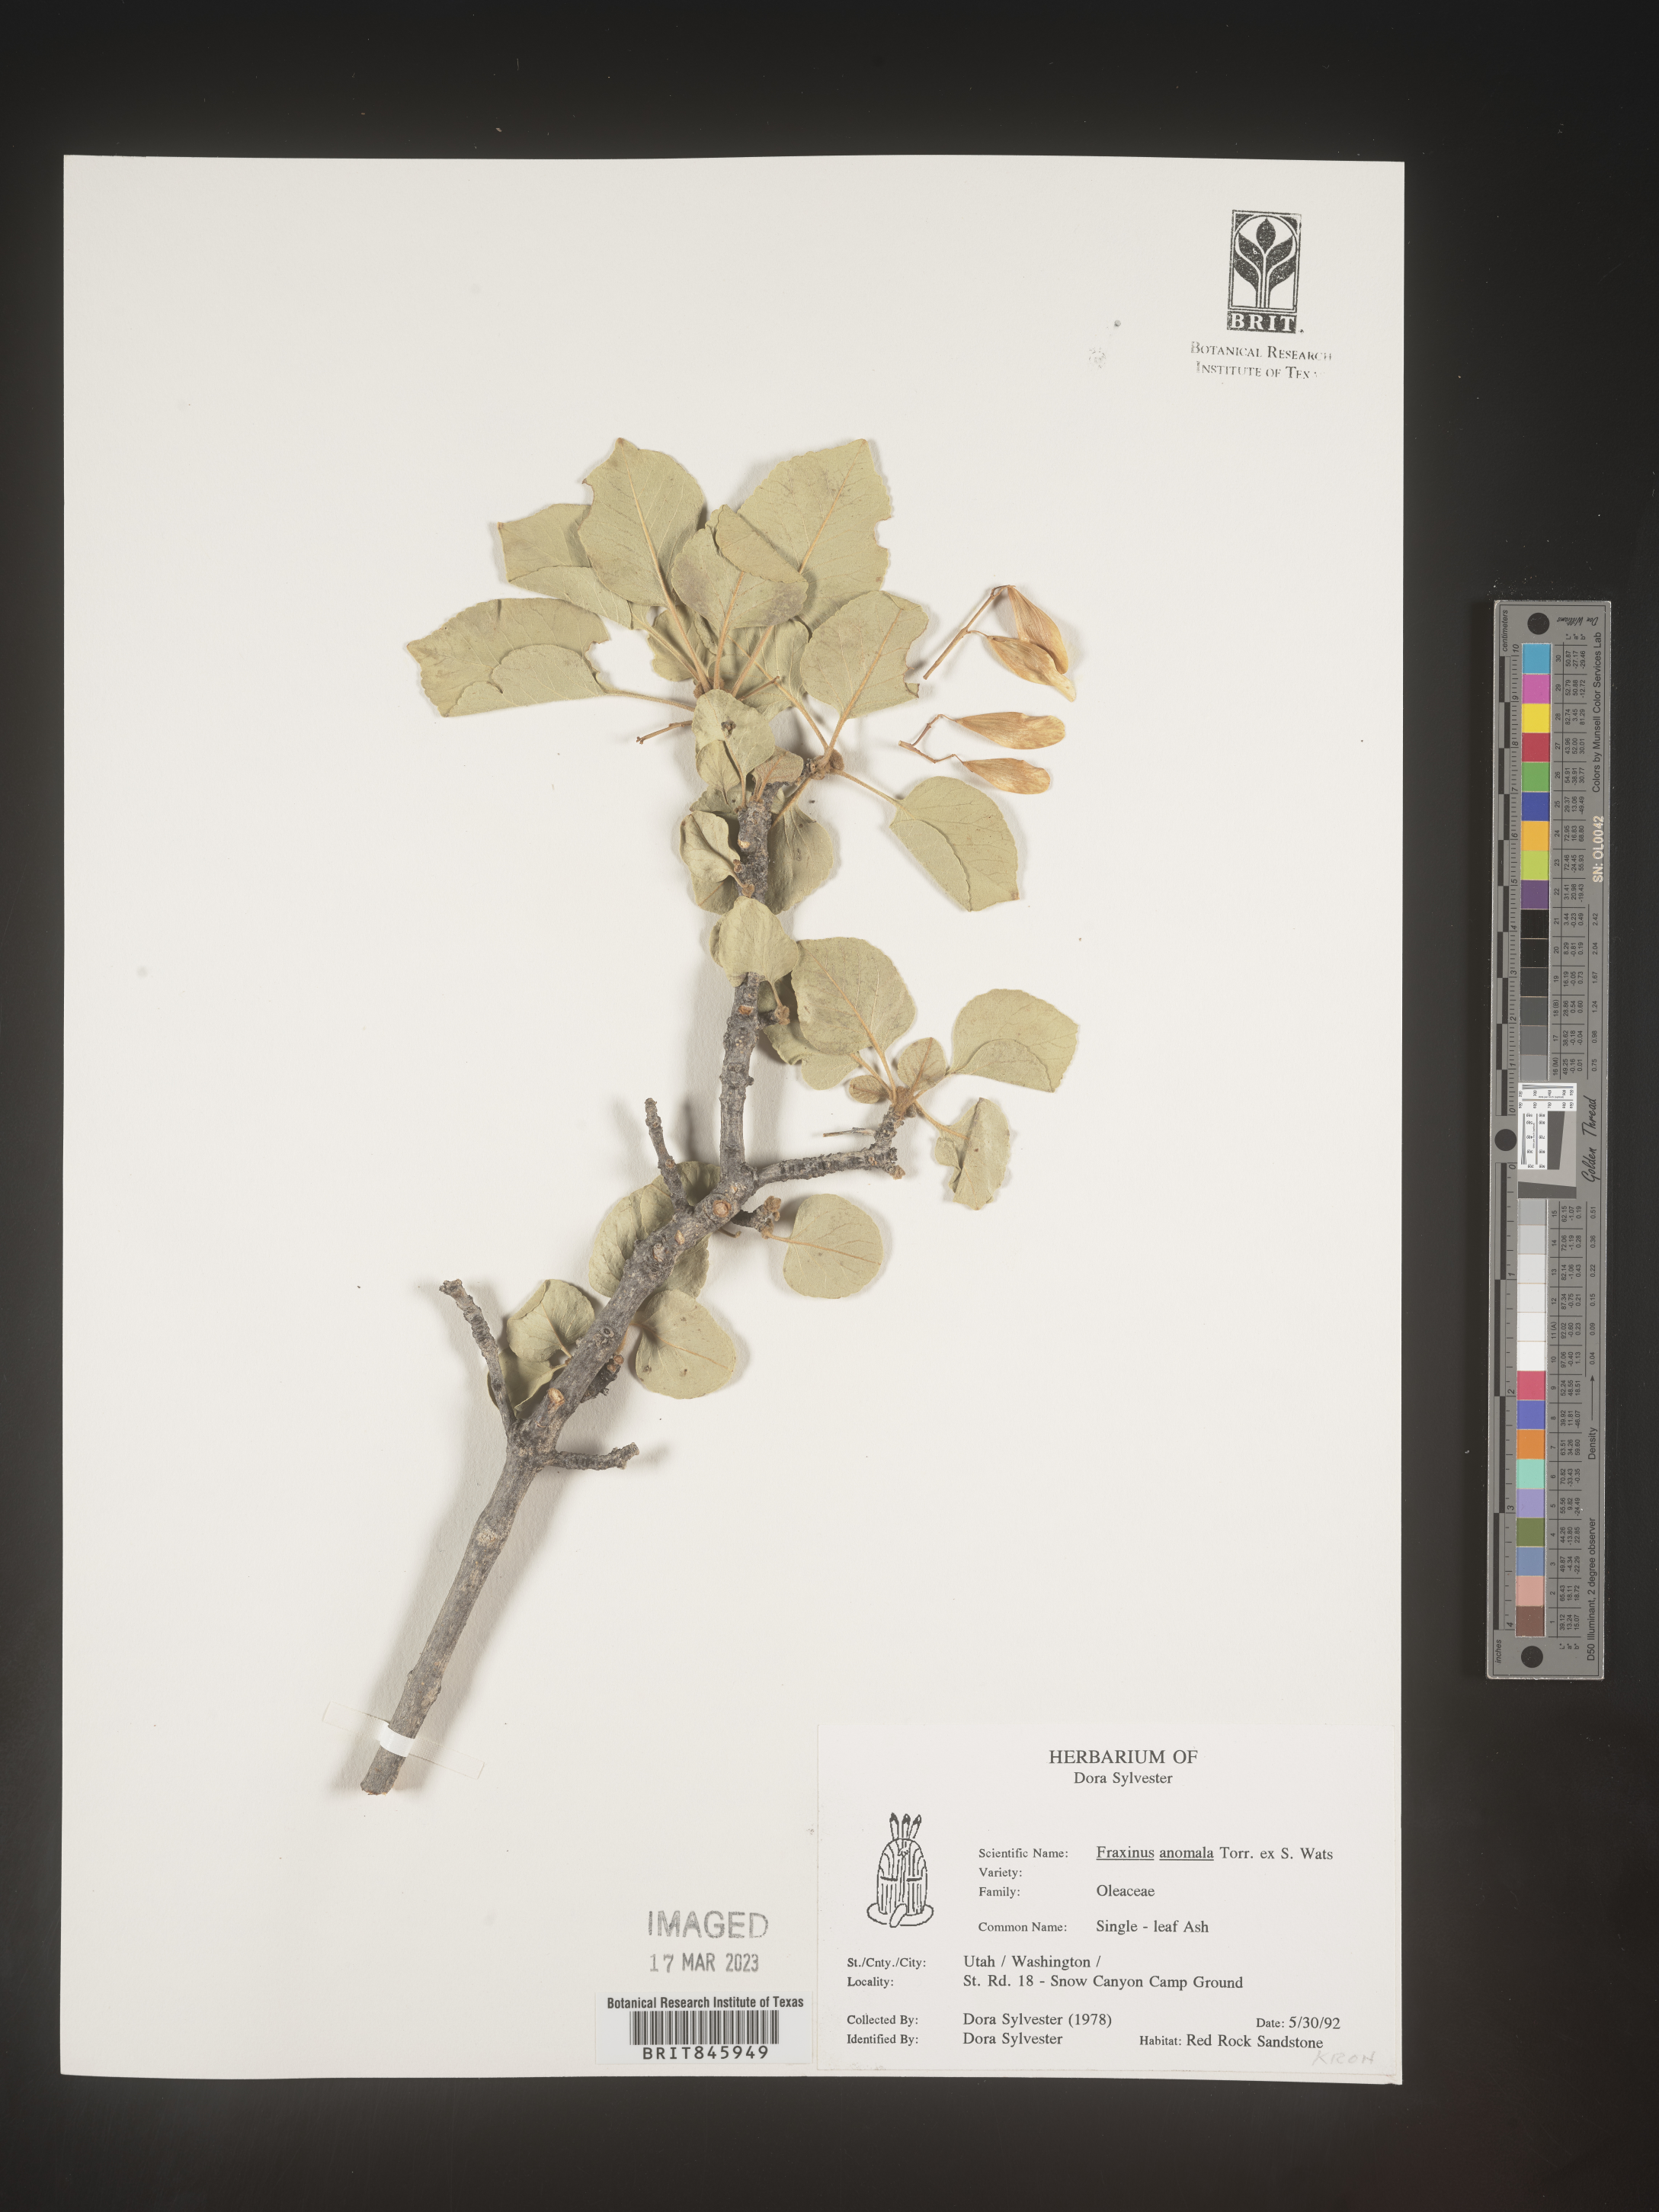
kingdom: Plantae
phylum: Tracheophyta
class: Magnoliopsida
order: Lamiales
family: Oleaceae
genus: Fraxinus
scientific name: Fraxinus anomala
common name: Utah ash
